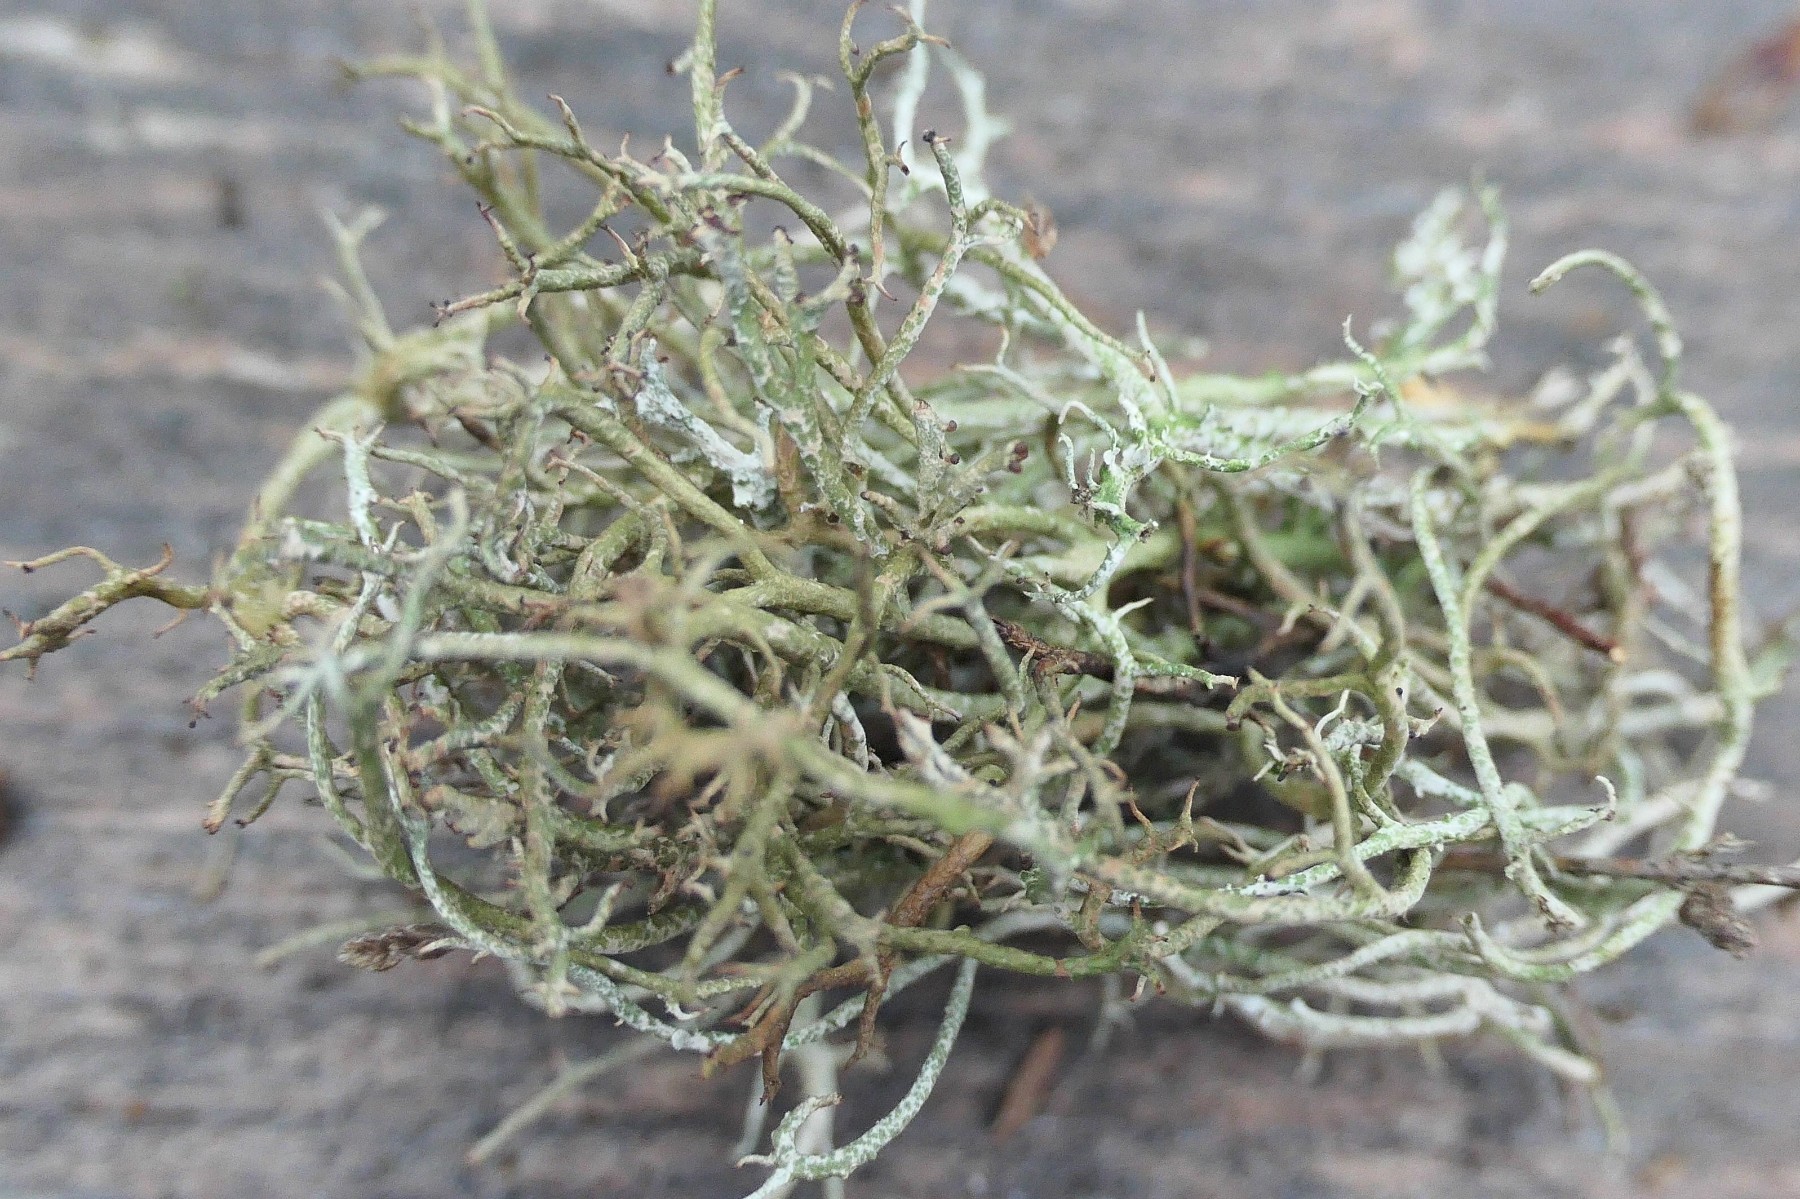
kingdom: Fungi
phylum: Ascomycota
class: Lecanoromycetes
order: Lecanorales
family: Cladoniaceae
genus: Cladonia
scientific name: Cladonia scabriuscula
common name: ru bægerlav
